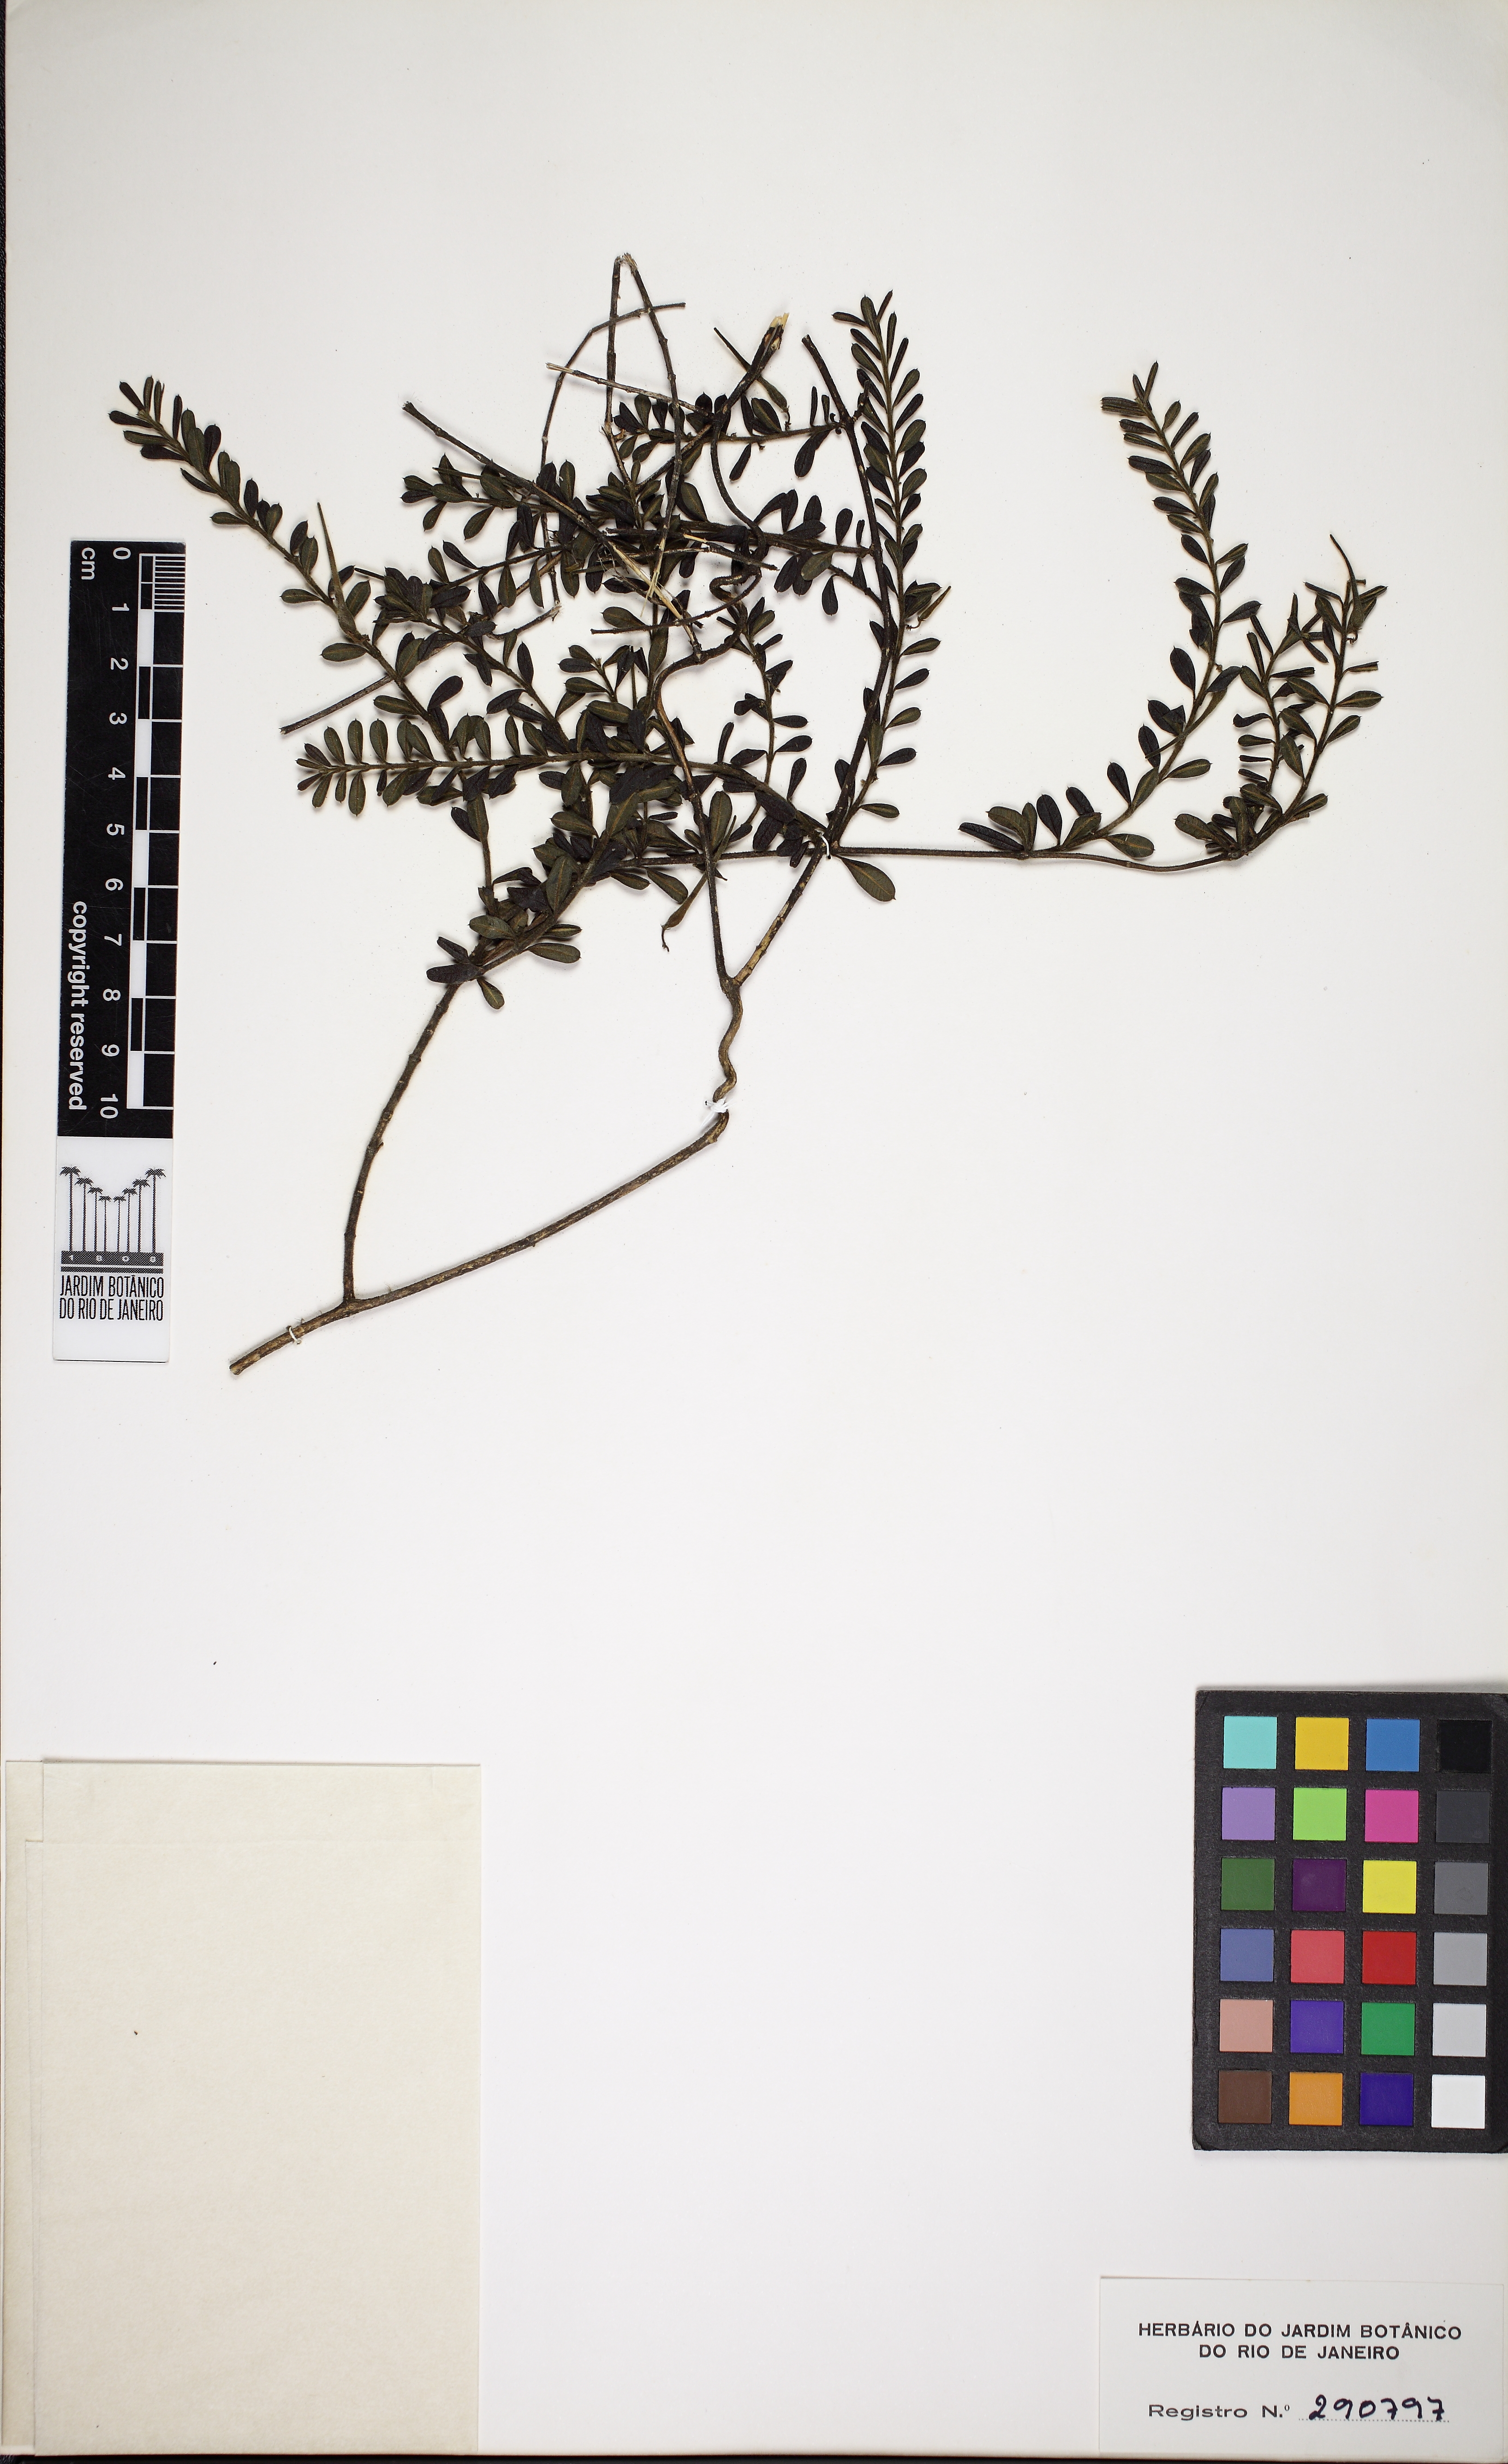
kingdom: Plantae
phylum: Tracheophyta
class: Magnoliopsida
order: Gentianales
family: Apocynaceae
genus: Ditassa
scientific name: Ditassa mucronata
